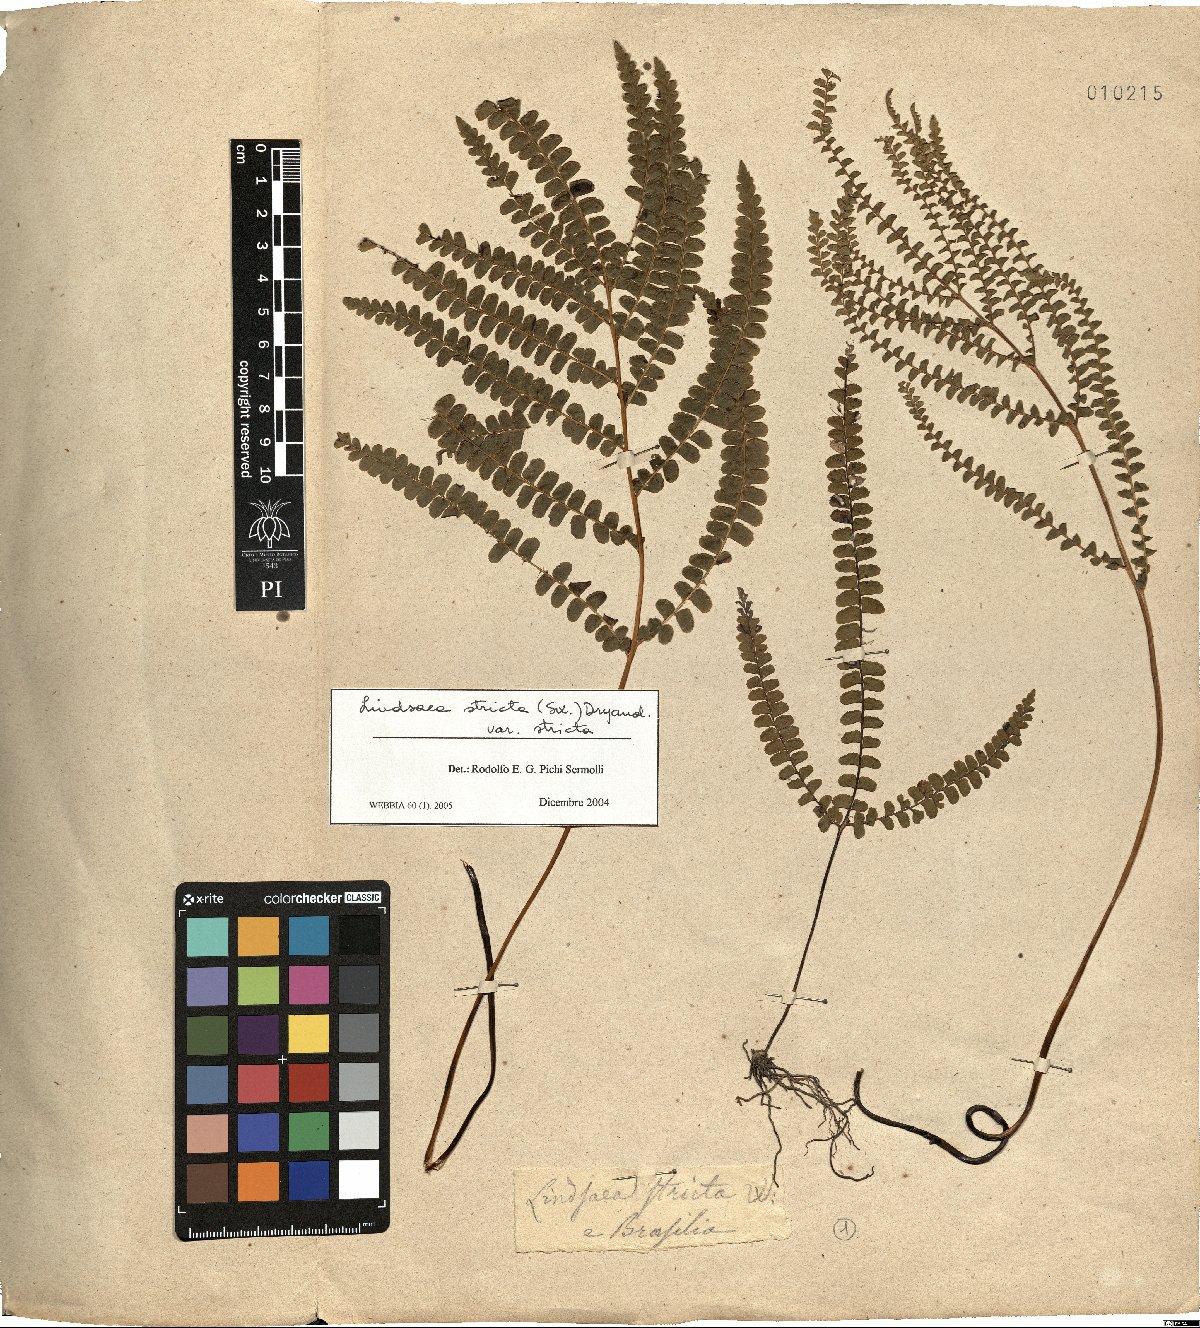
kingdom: Plantae
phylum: Tracheophyta
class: Polypodiopsida
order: Polypodiales
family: Lindsaeaceae
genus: Lindsaea
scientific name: Lindsaea stricta
